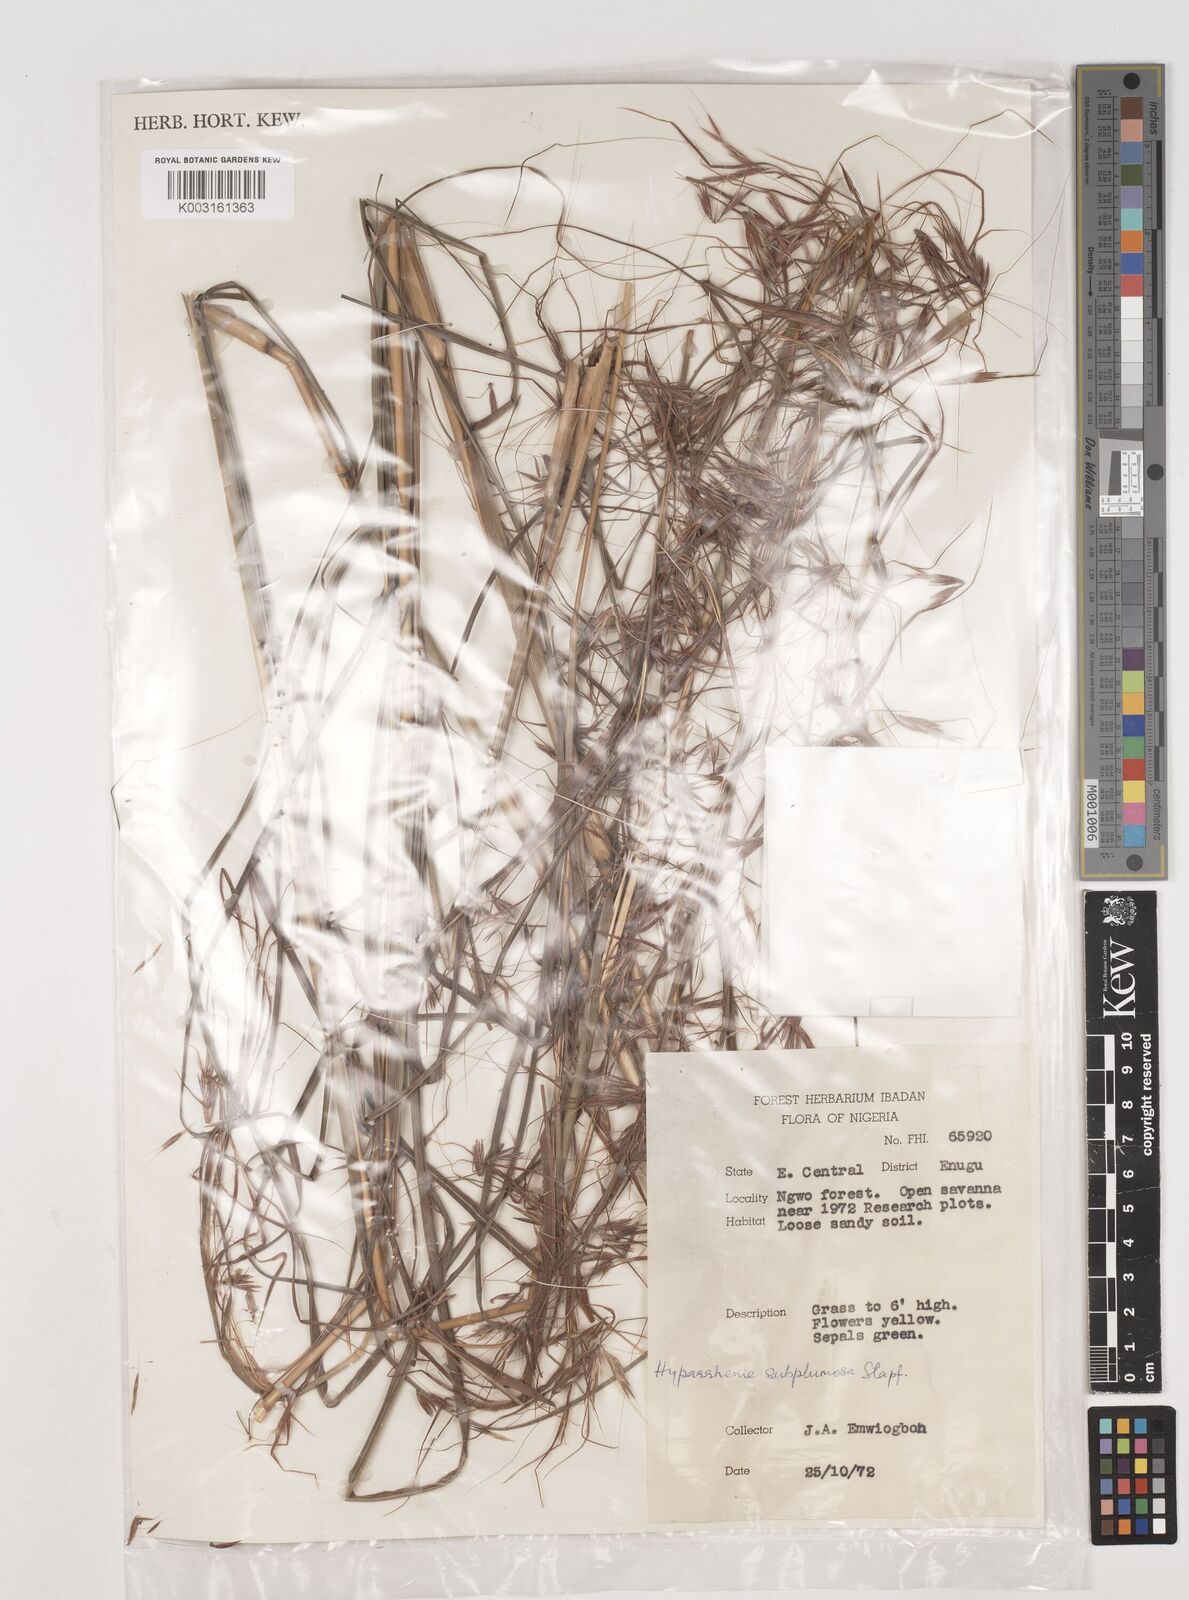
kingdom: Plantae
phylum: Tracheophyta
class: Liliopsida
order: Poales
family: Poaceae
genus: Hyparrhenia
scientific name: Hyparrhenia subplumosa
